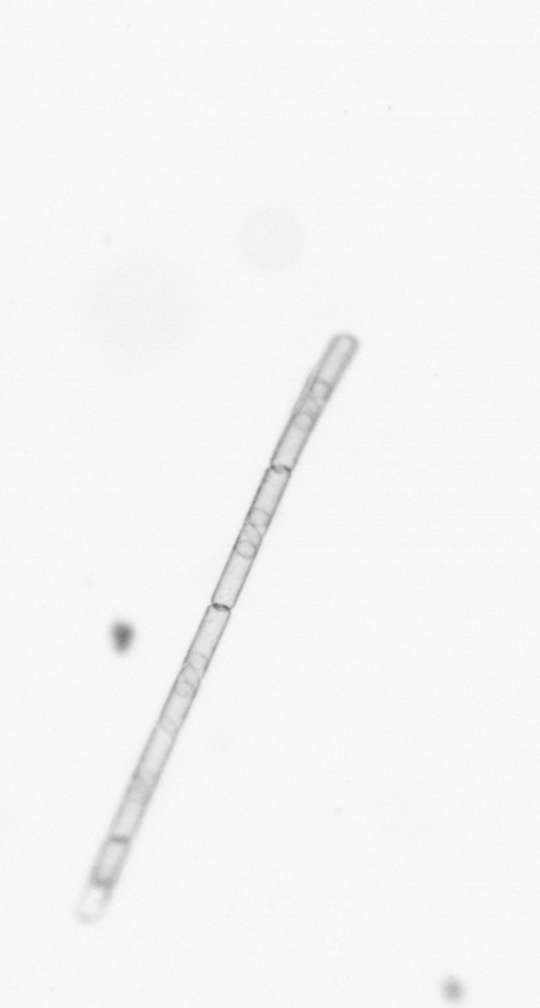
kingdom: Chromista
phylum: Ochrophyta
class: Bacillariophyceae
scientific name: Bacillariophyceae
